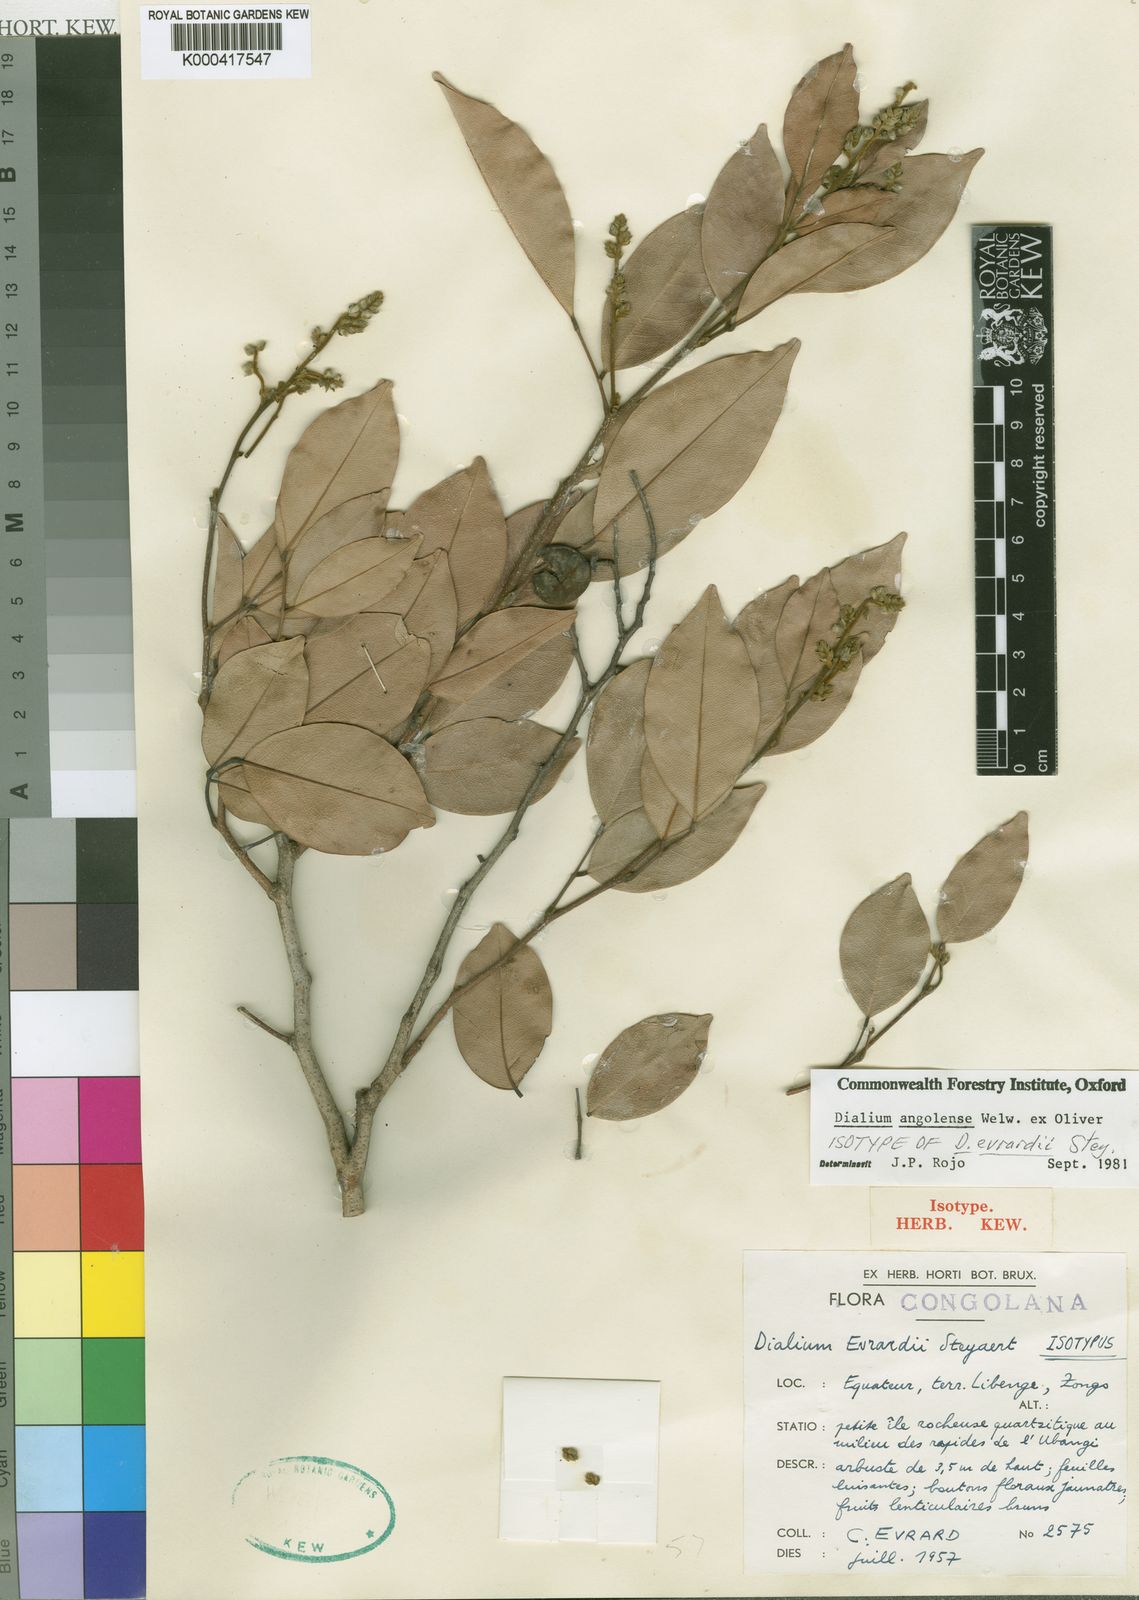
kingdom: Plantae
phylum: Tracheophyta
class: Magnoliopsida
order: Fabales
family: Fabaceae
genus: Dialium
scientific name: Dialium angolense
